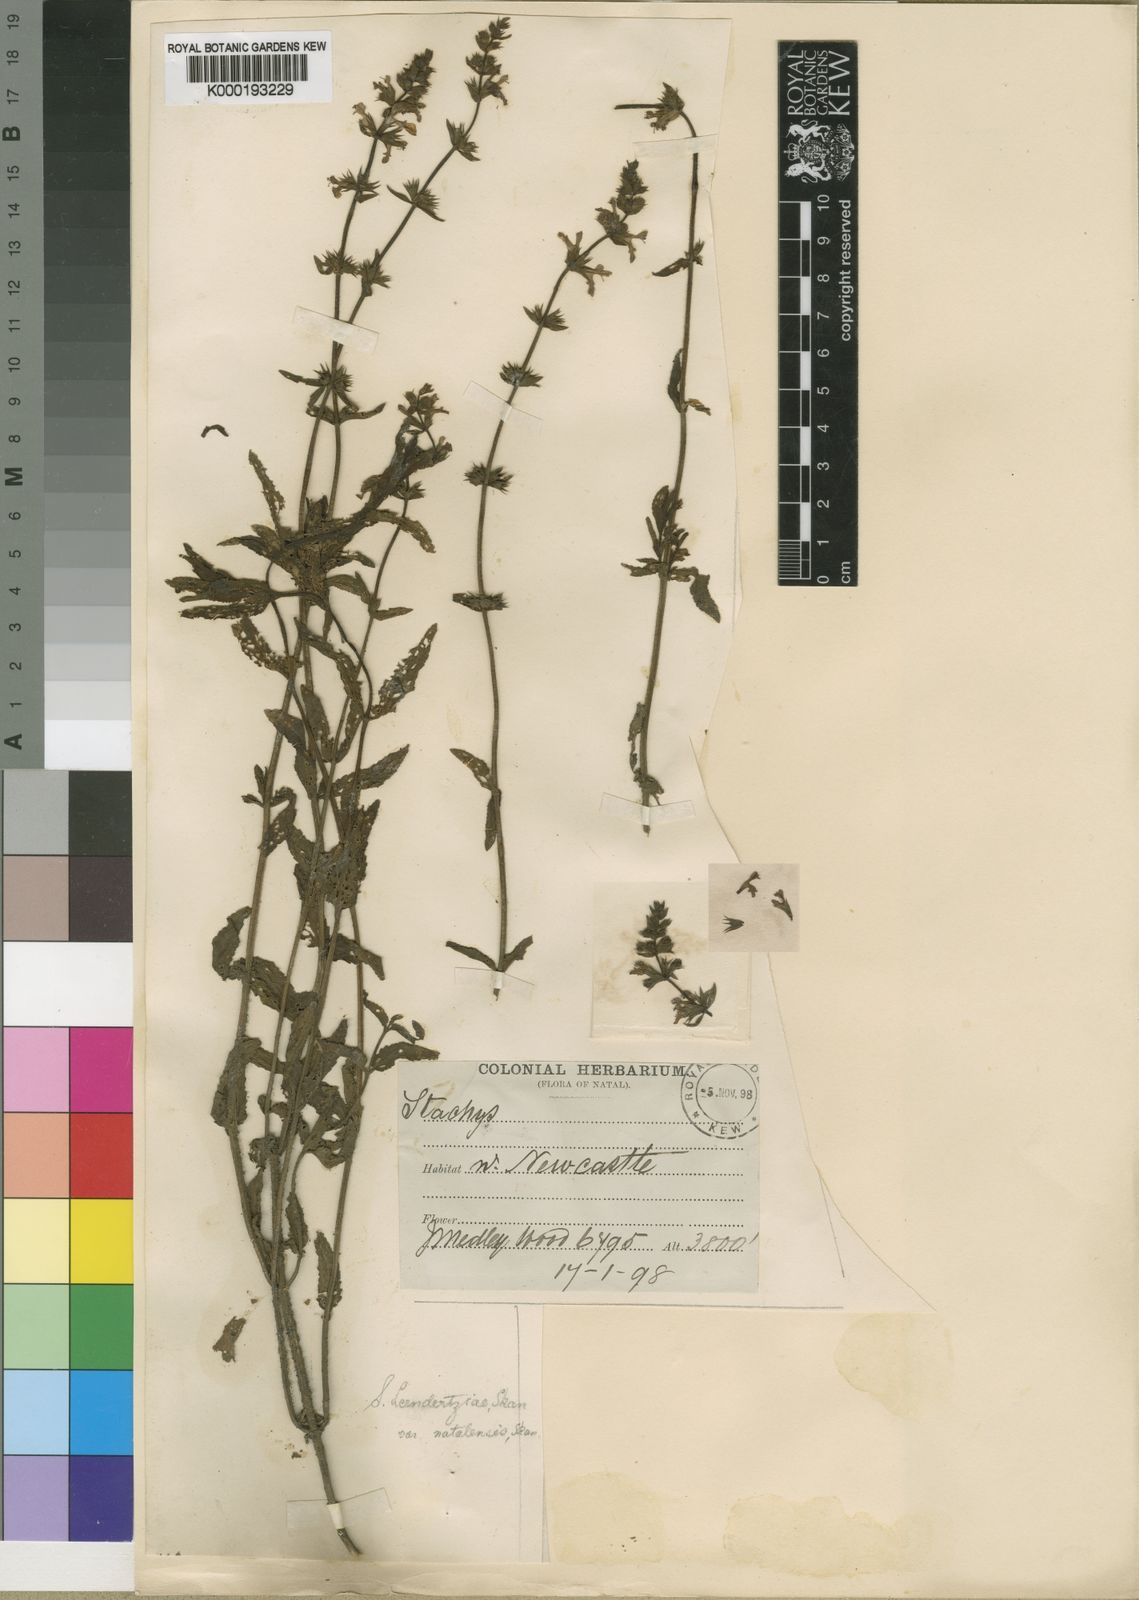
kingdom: Plantae
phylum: Tracheophyta
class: Magnoliopsida
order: Lamiales
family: Lamiaceae
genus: Stachys
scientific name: Stachys
